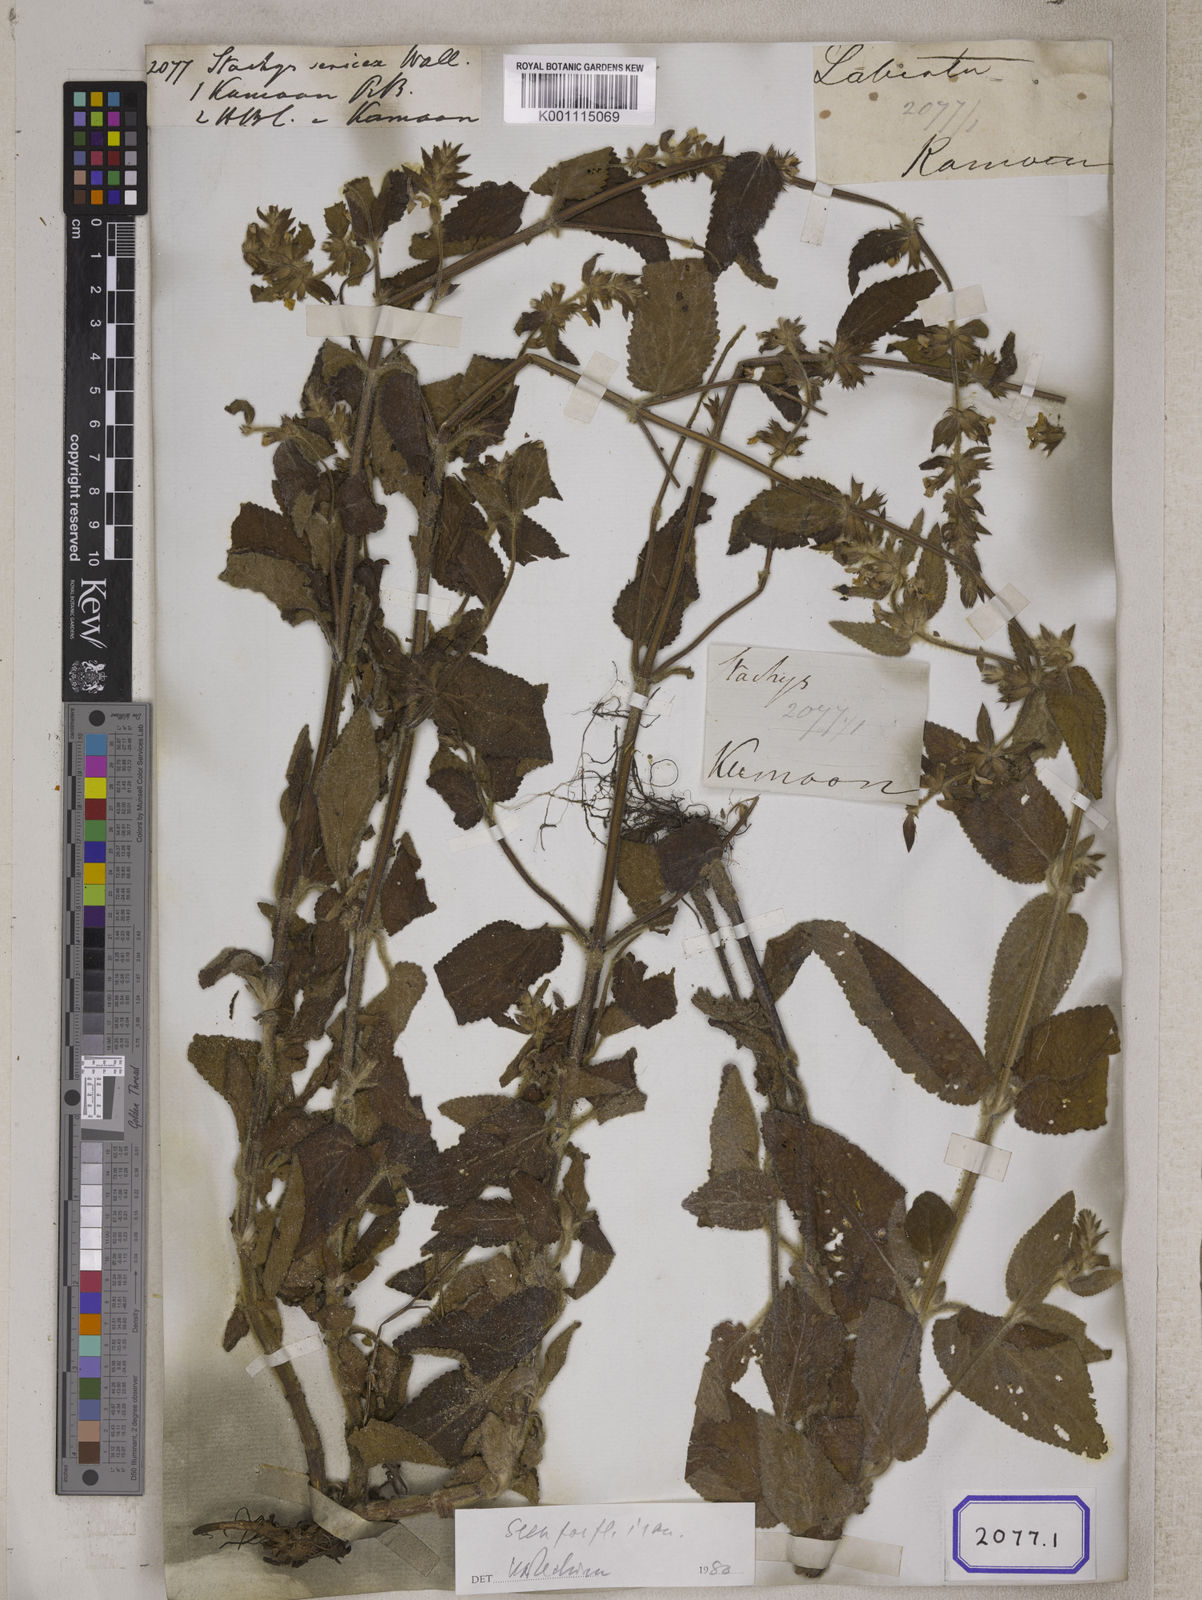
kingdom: Plantae
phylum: Tracheophyta
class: Magnoliopsida
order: Lamiales
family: Lamiaceae
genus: Stachys
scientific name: Stachys
